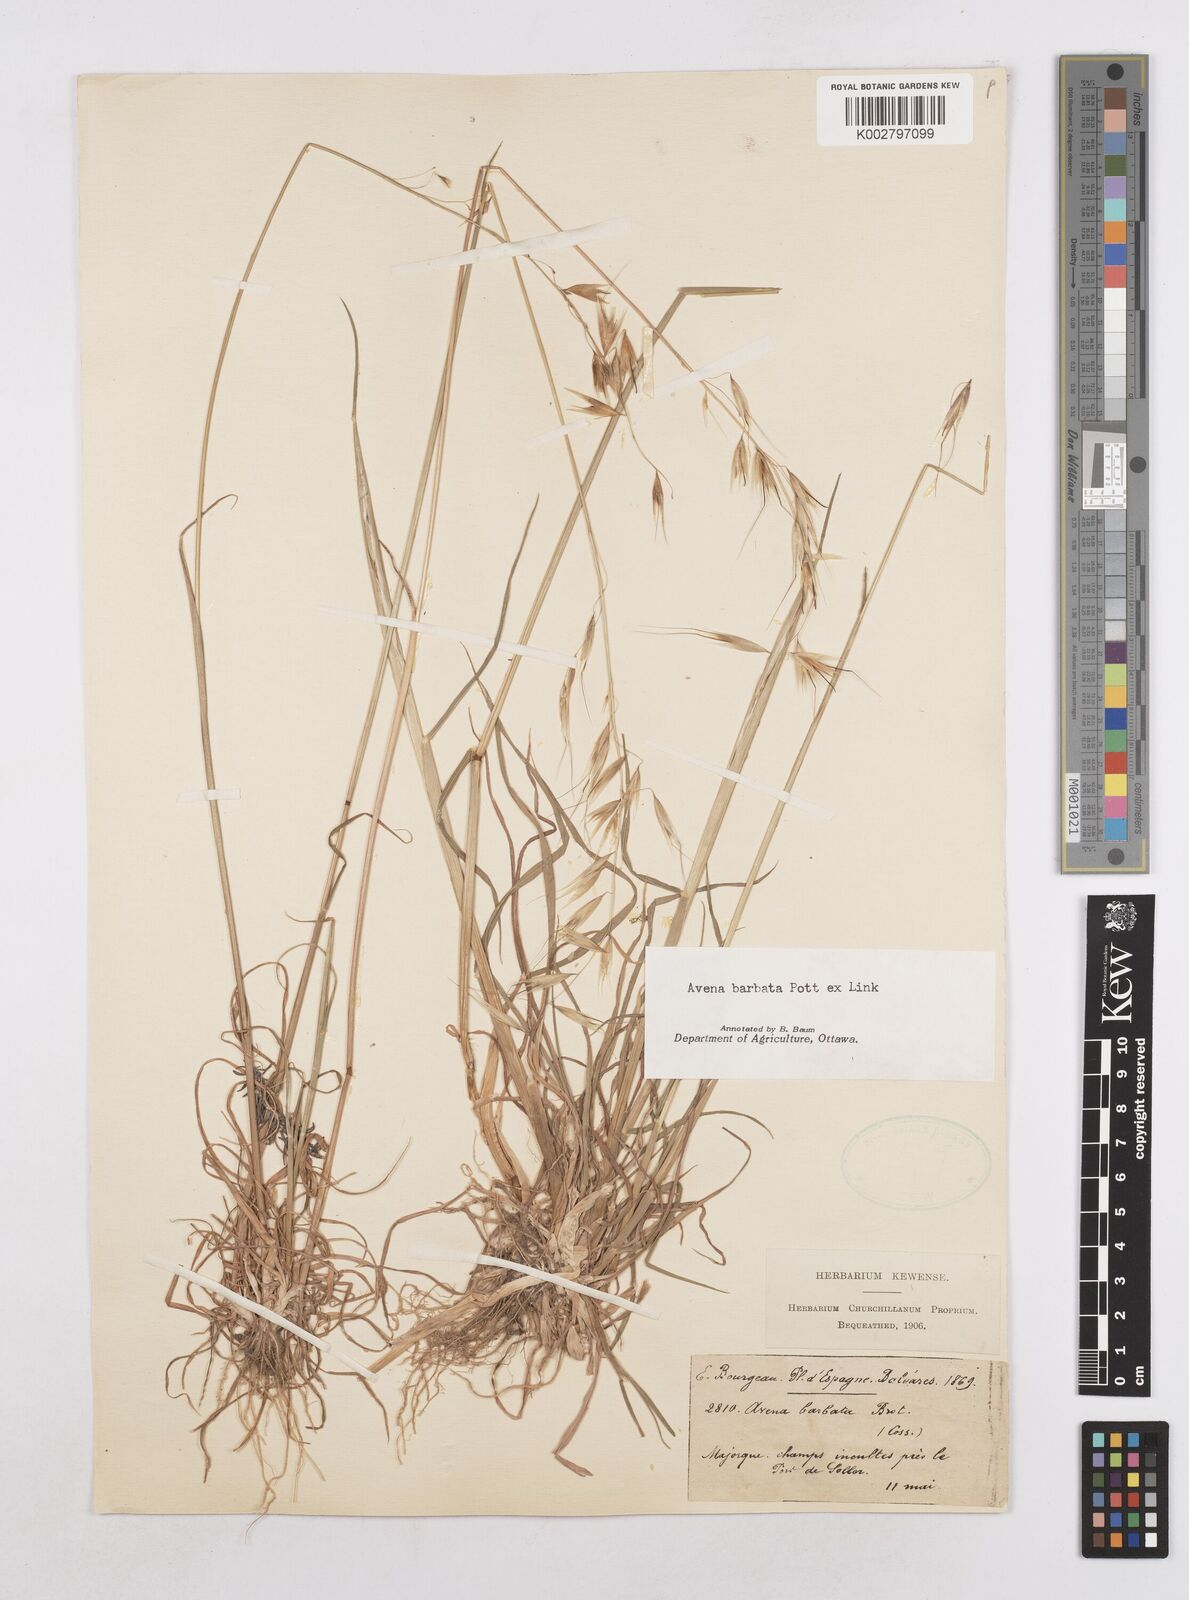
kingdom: Plantae
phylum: Tracheophyta
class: Liliopsida
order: Poales
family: Poaceae
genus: Avena
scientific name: Avena
